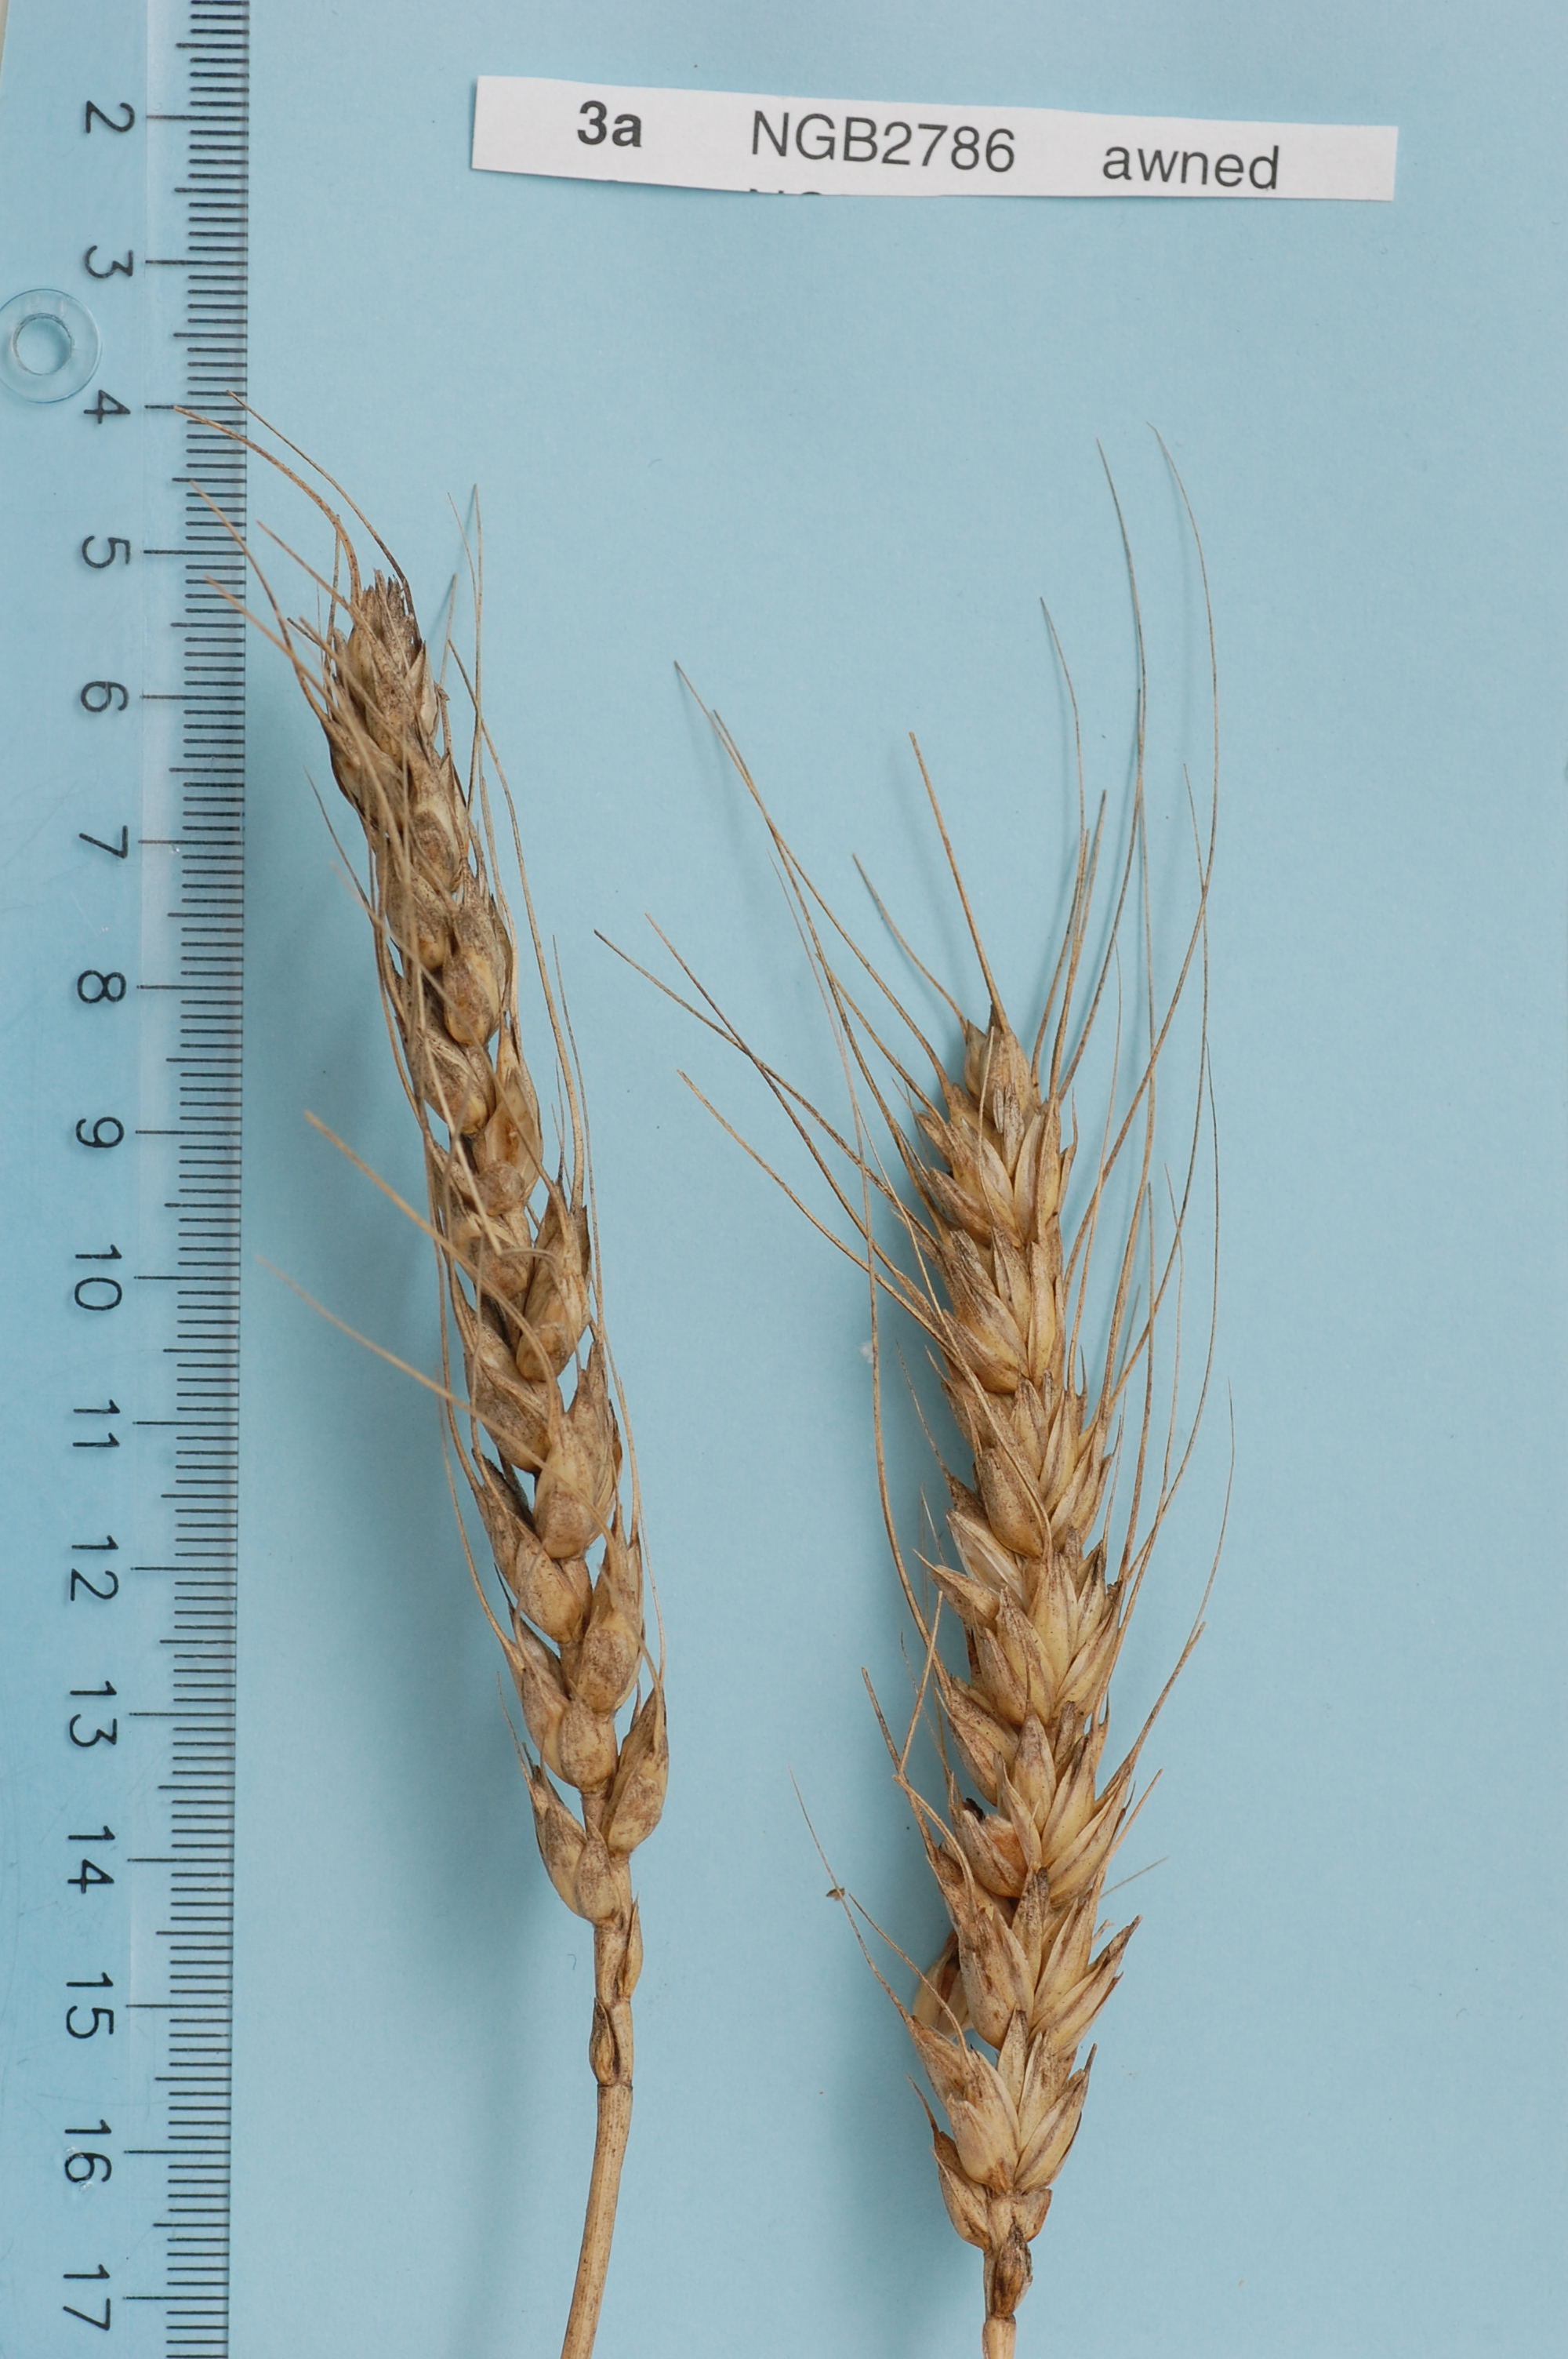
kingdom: Plantae
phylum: Tracheophyta
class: Liliopsida
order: Poales
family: Poaceae
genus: Triticum
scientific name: Triticum aestivum
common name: Common wheat
